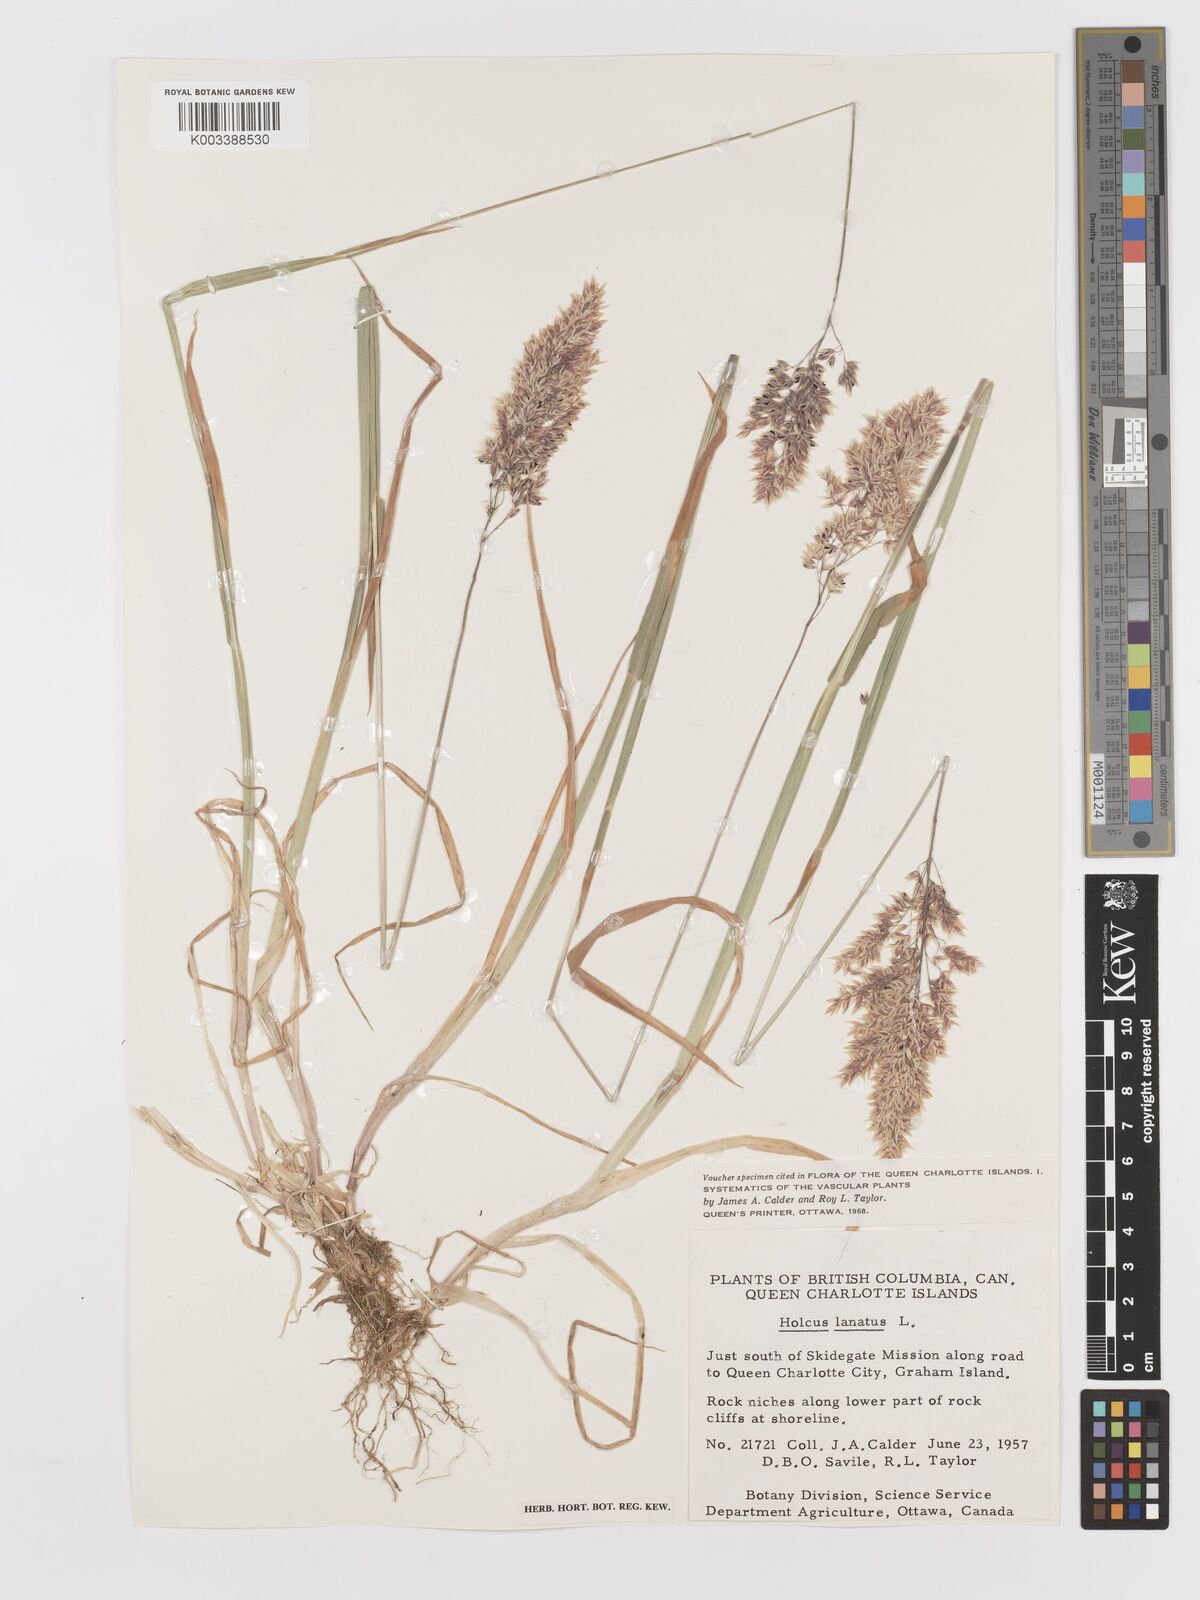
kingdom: Plantae
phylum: Tracheophyta
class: Liliopsida
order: Poales
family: Poaceae
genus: Holcus
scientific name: Holcus lanatus
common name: Yorkshire-fog
